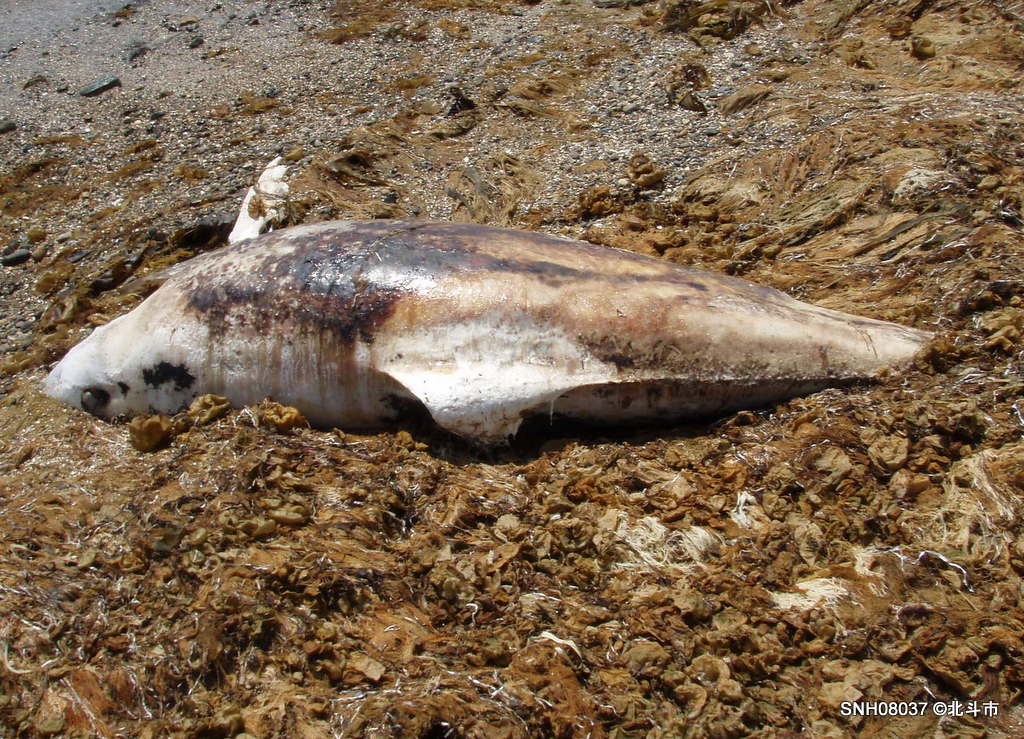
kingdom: Animalia
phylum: Chordata
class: Mammalia
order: Cetacea
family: Delphinidae
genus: Lagenorhynchus
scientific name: Lagenorhynchus obliquidens
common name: Pacific white-sided dolphin
